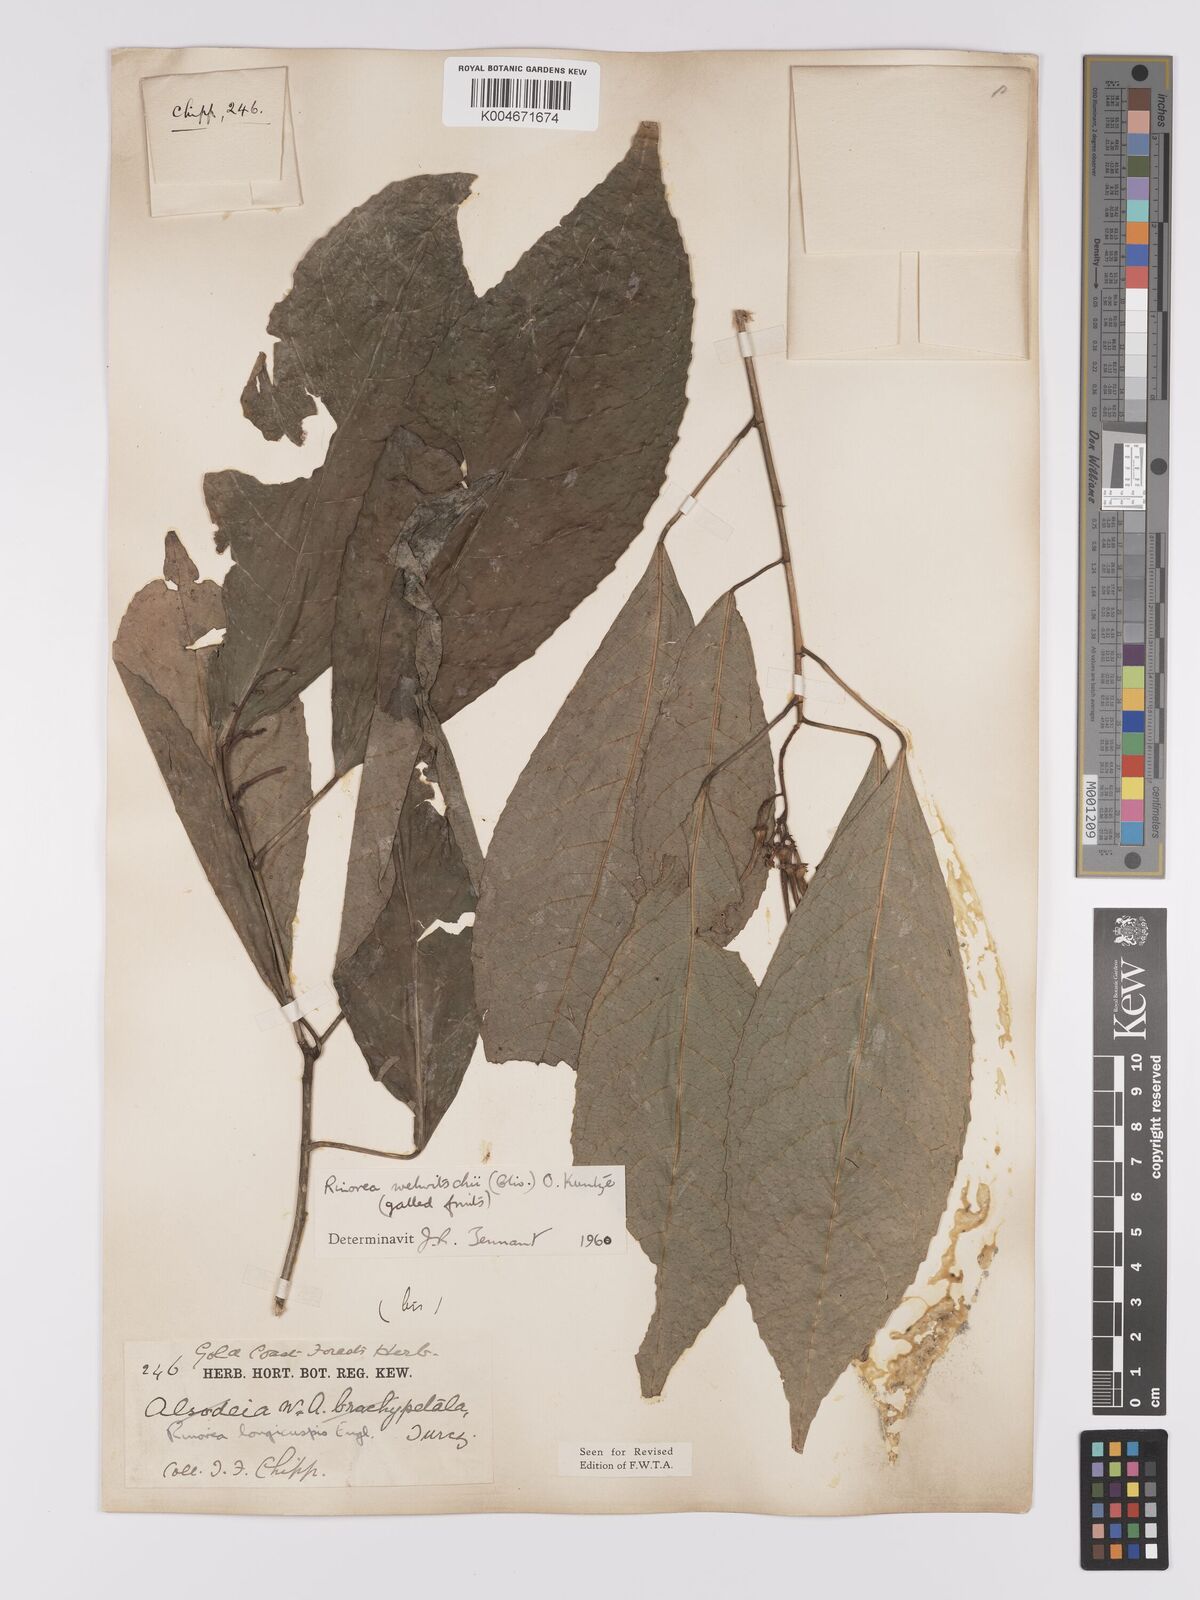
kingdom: Plantae
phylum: Tracheophyta
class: Magnoliopsida
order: Malpighiales
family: Violaceae
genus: Rinorea
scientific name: Rinorea welwitschii
